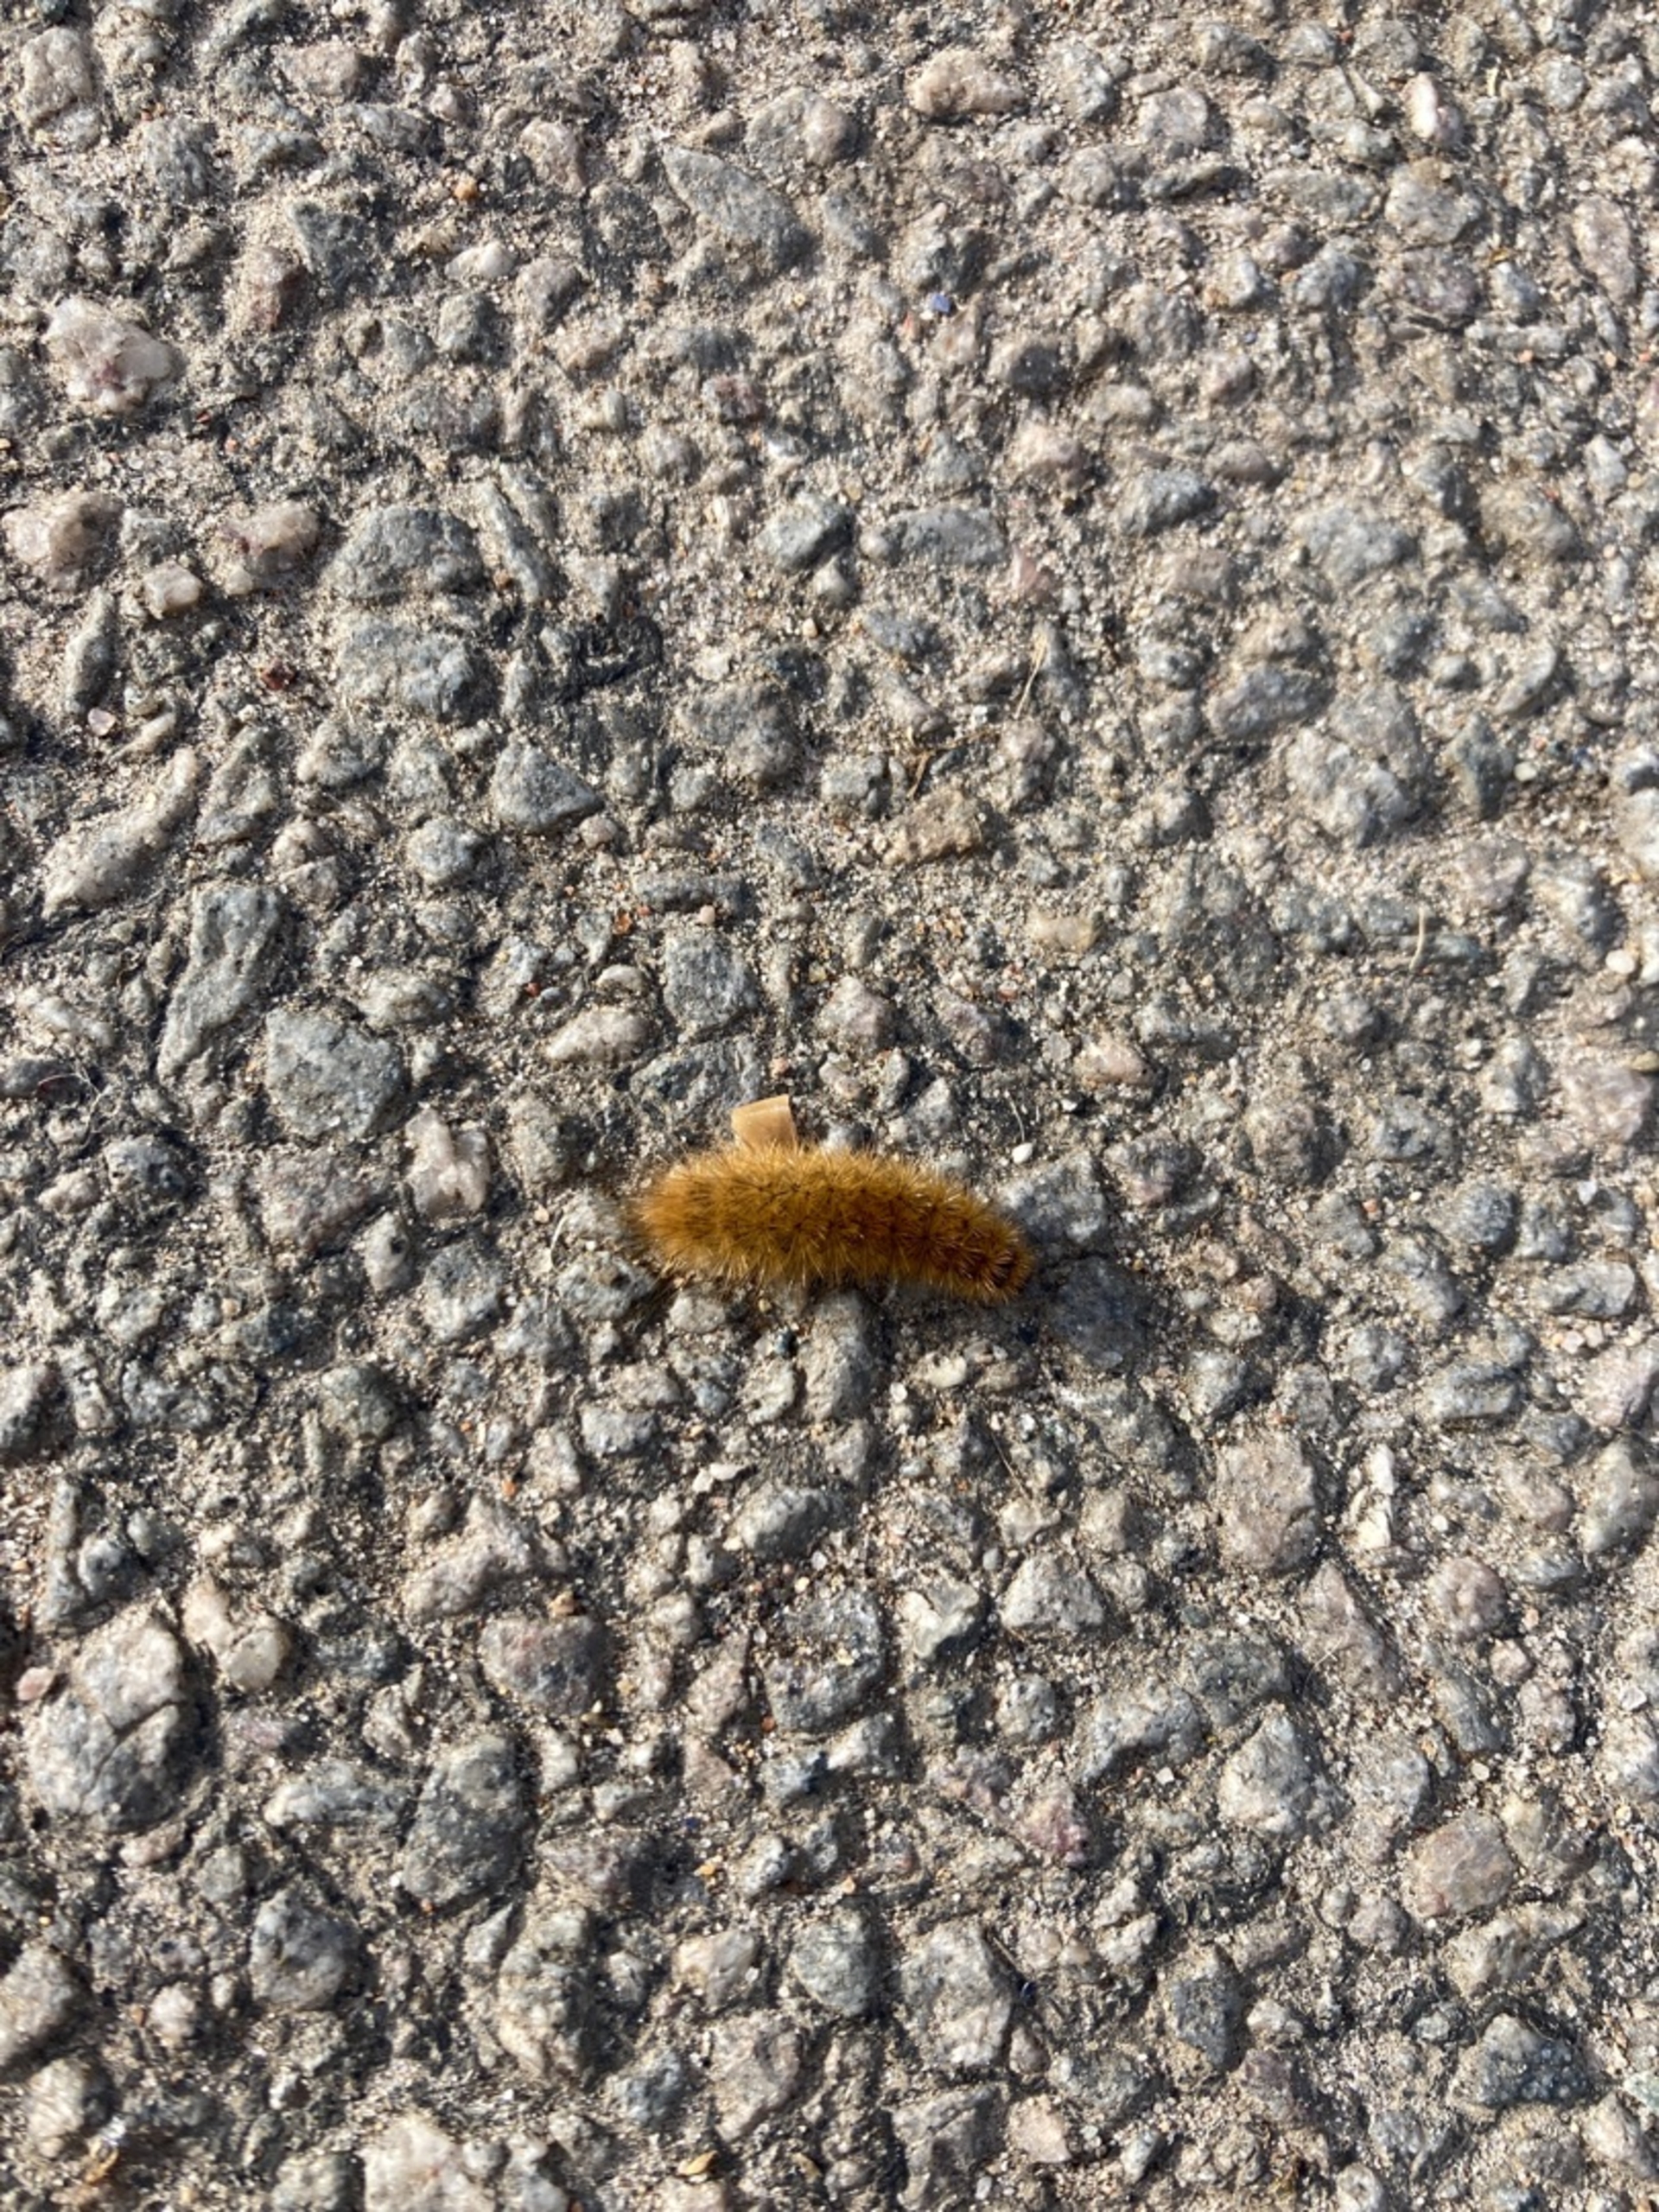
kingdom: Animalia
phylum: Arthropoda
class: Insecta
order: Lepidoptera
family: Erebidae
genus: Phragmatobia
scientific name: Phragmatobia fuliginosa
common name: Kanelbjørn
